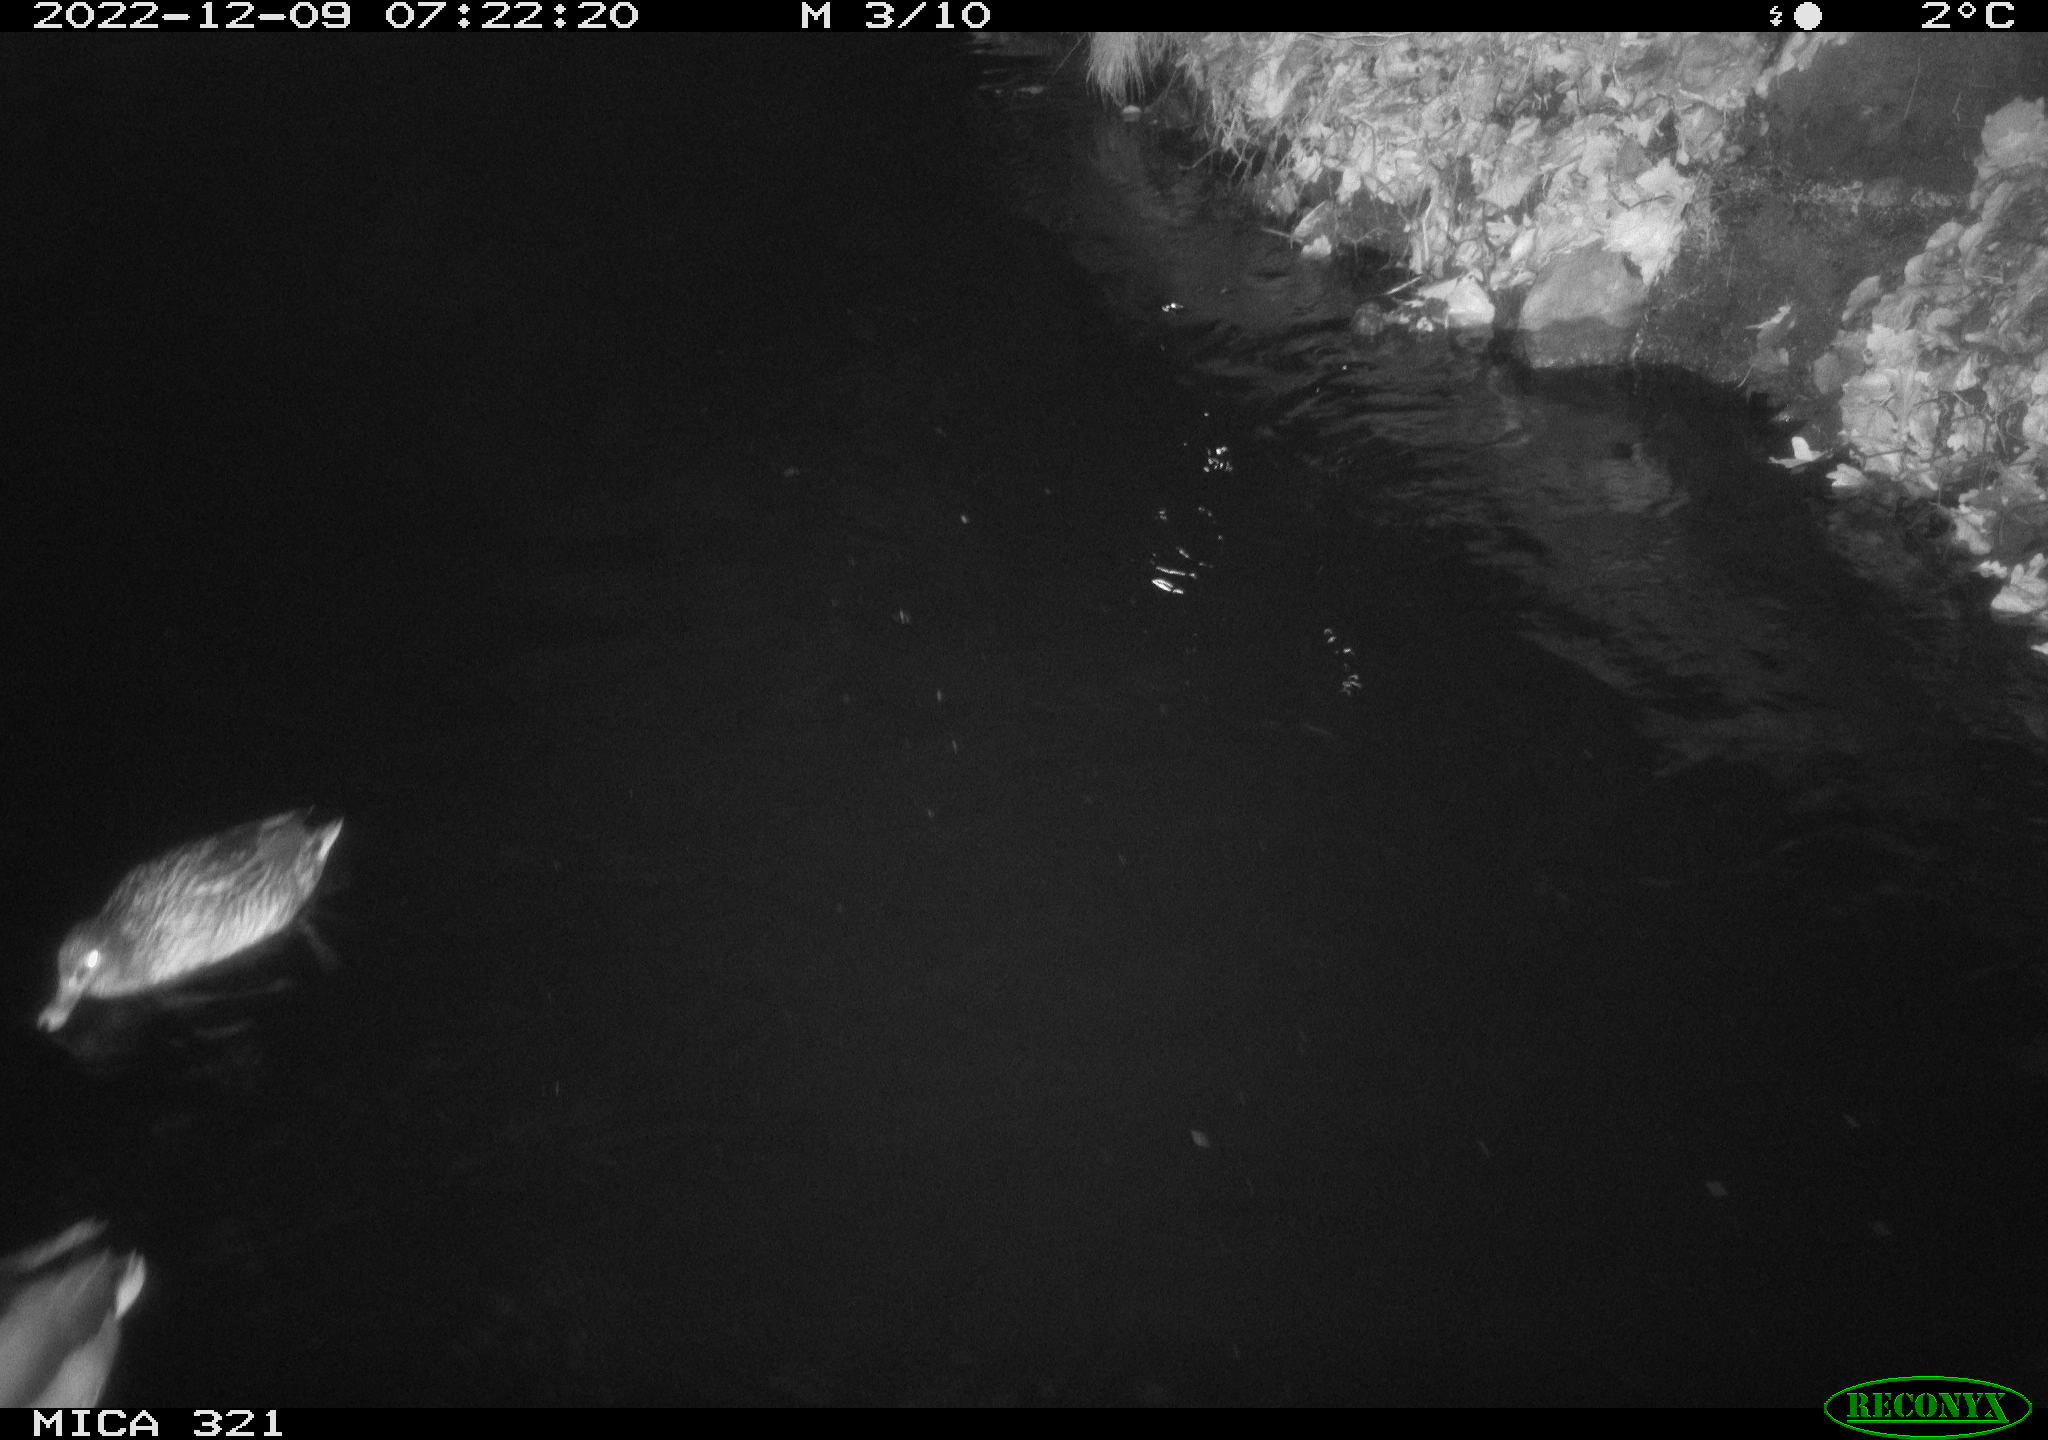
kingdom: Animalia
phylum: Chordata
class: Aves
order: Anseriformes
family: Anatidae
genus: Anas
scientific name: Anas
